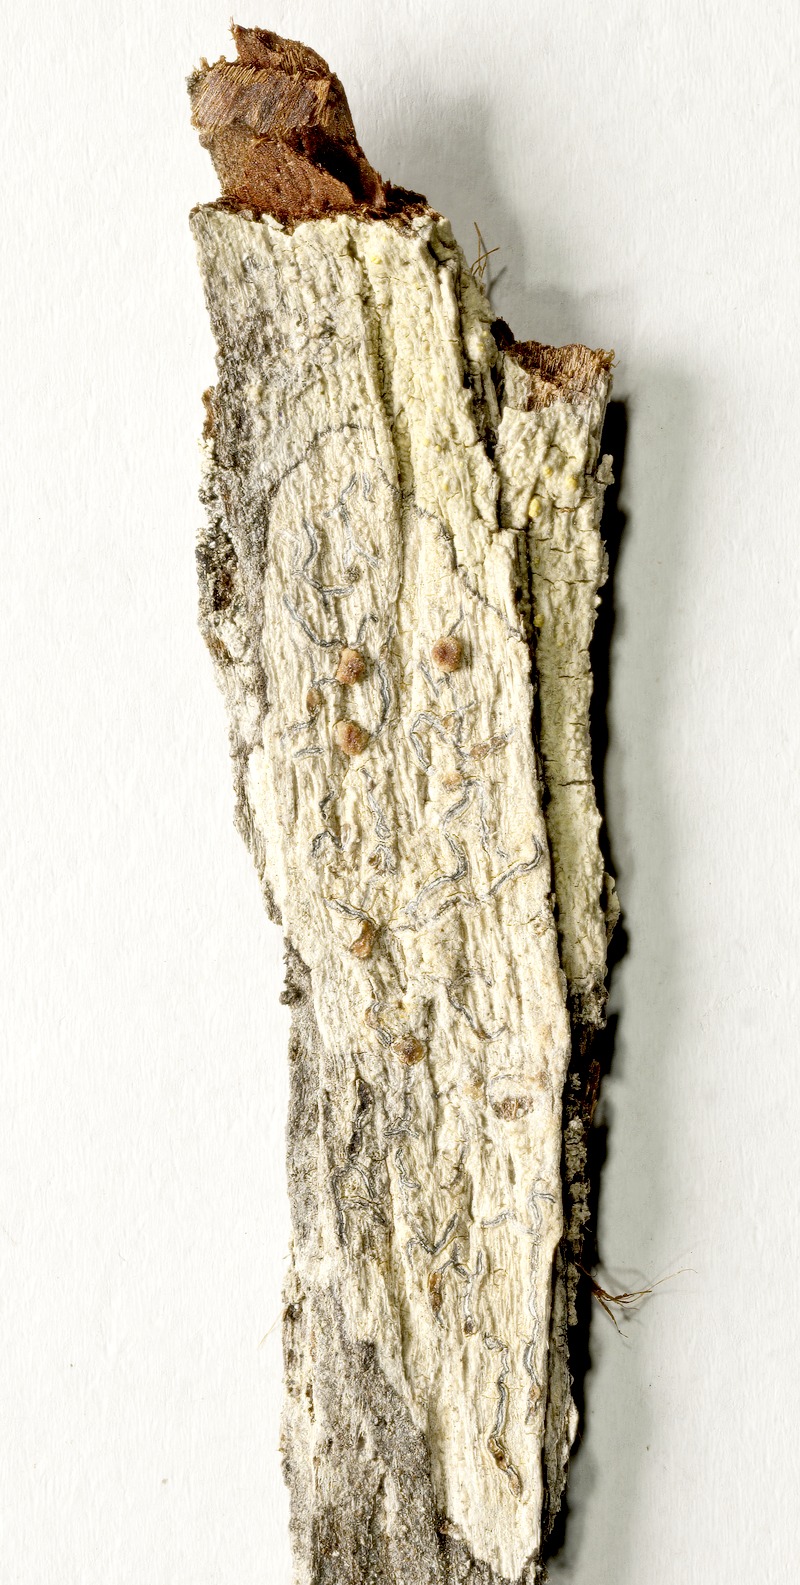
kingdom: Fungi
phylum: Basidiomycota
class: Tremellomycetes
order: Tremellales
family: Tremellaceae
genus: Tremella
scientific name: Tremella phaeographinae
